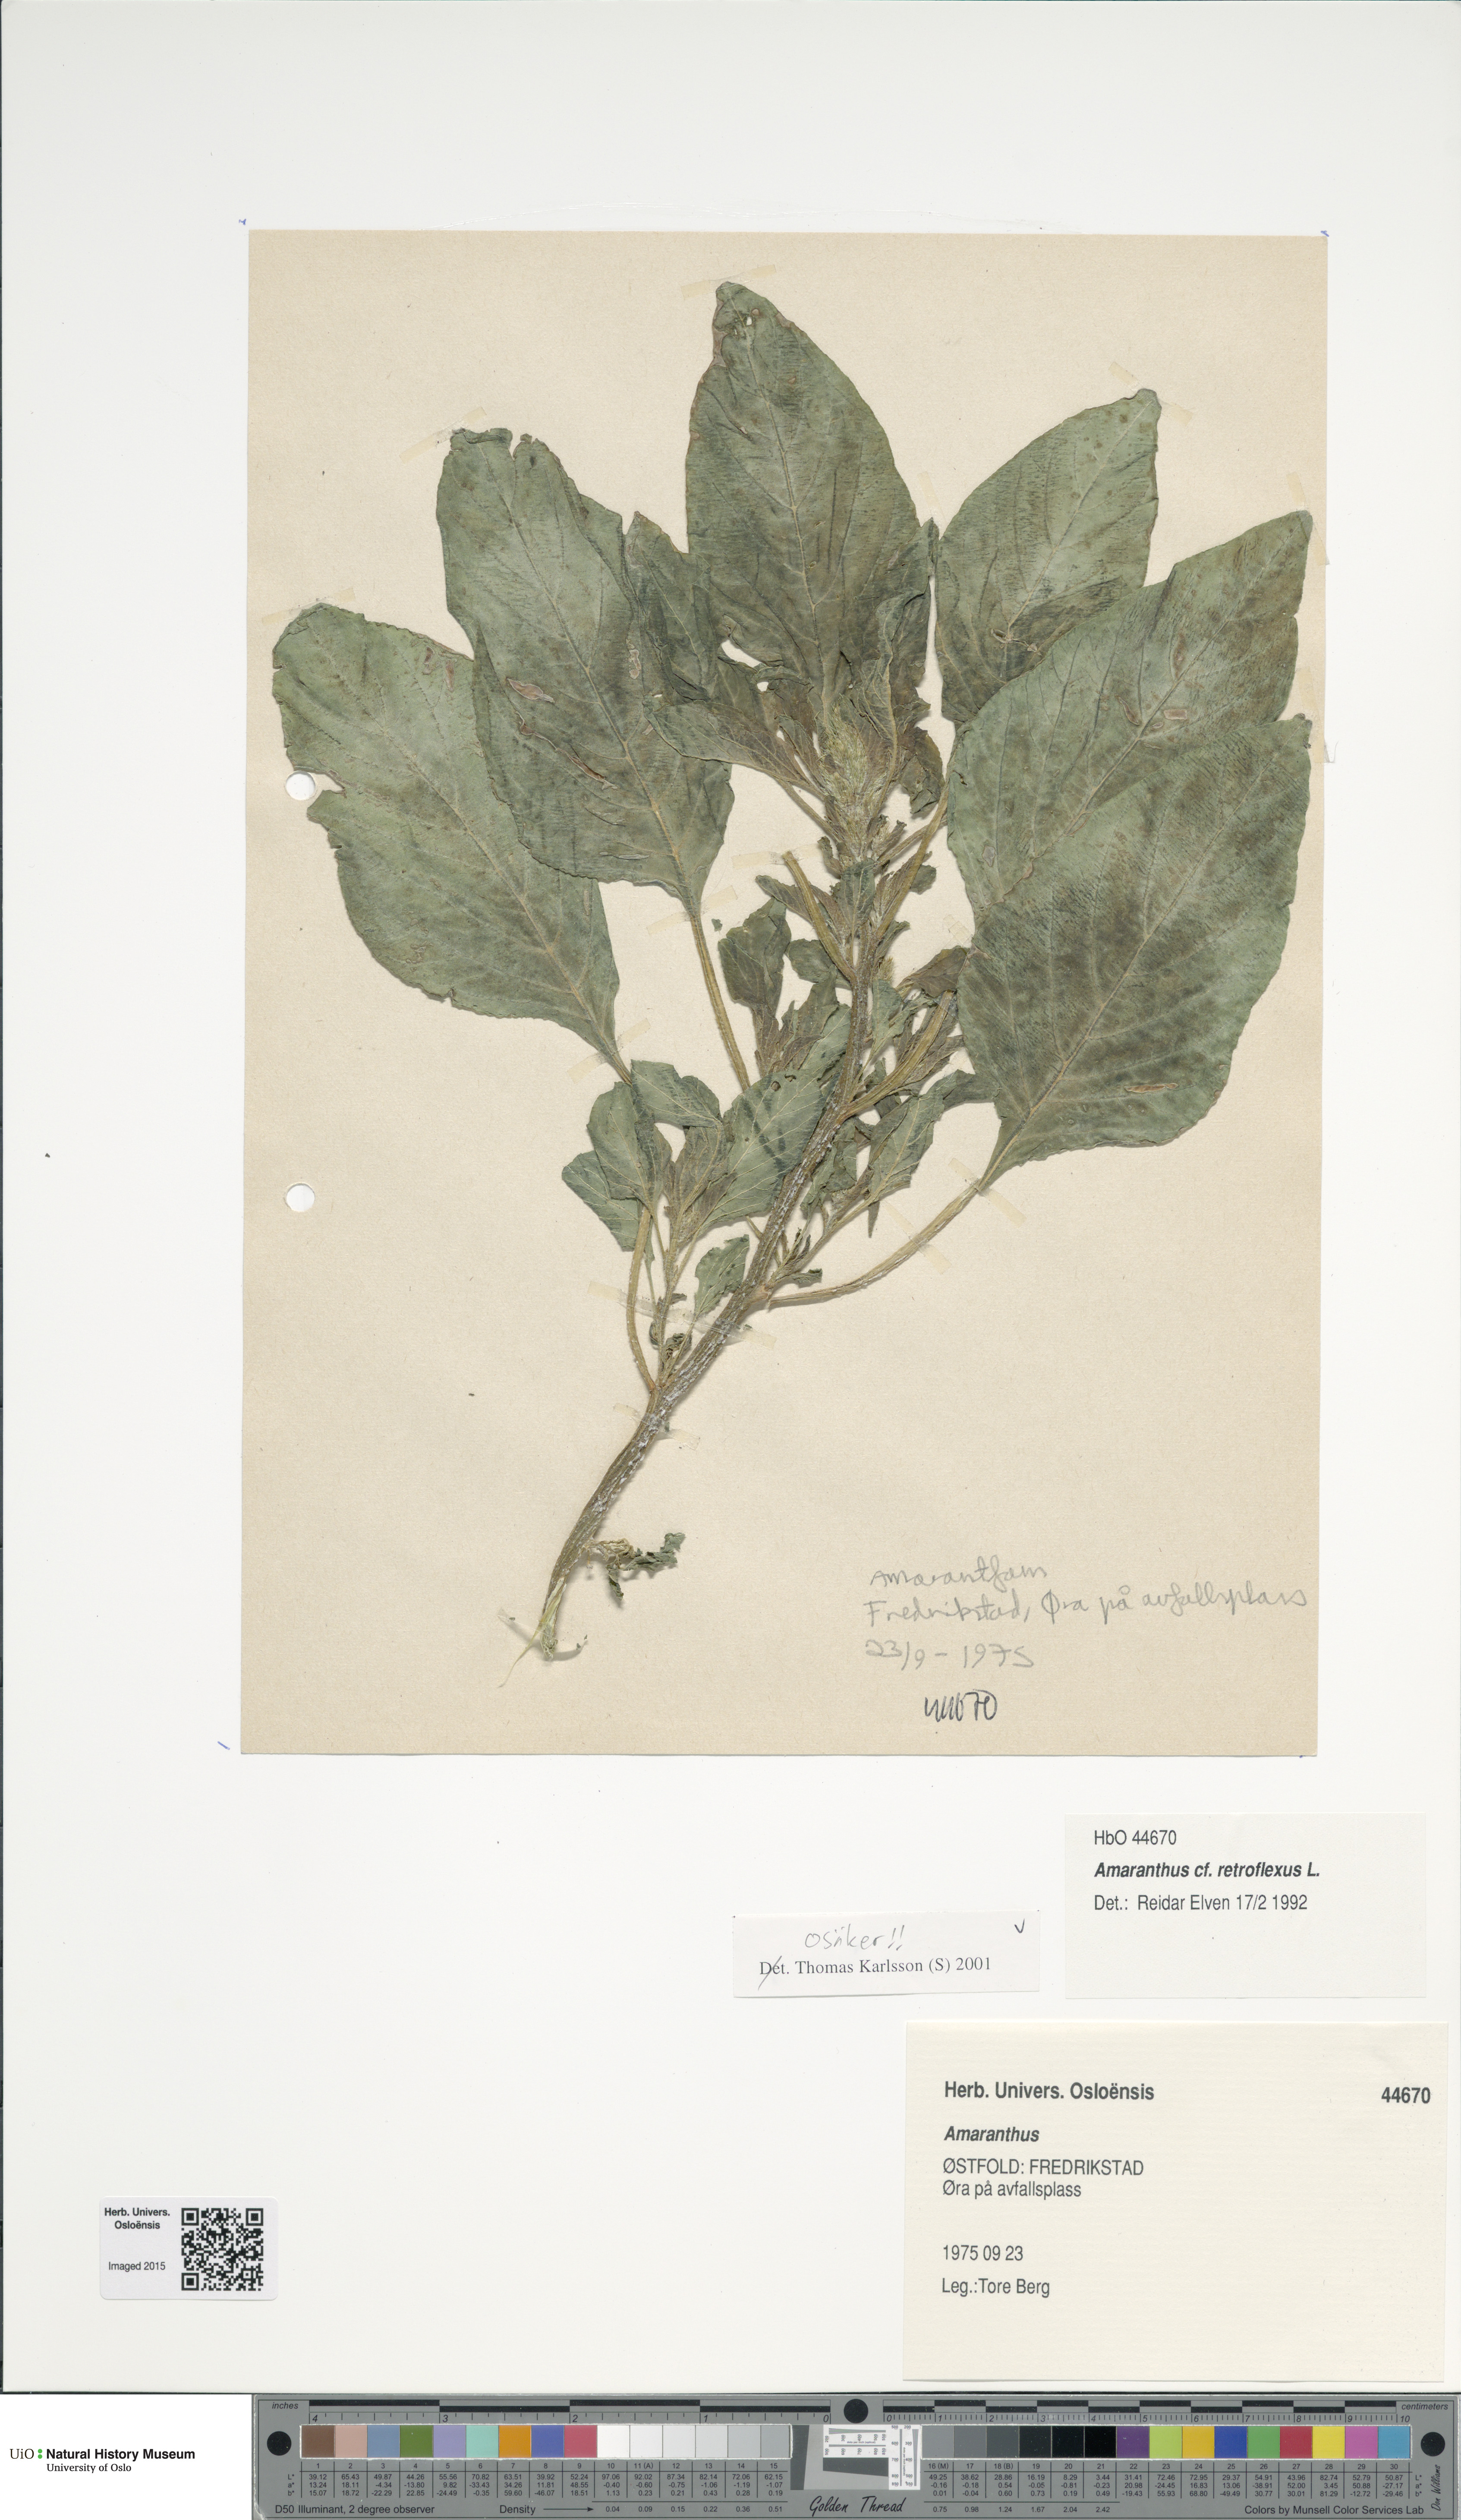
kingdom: Plantae
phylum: Tracheophyta
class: Magnoliopsida
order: Caryophyllales
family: Amaranthaceae
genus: Amaranthus
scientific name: Amaranthus retroflexus
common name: Redroot amaranth
